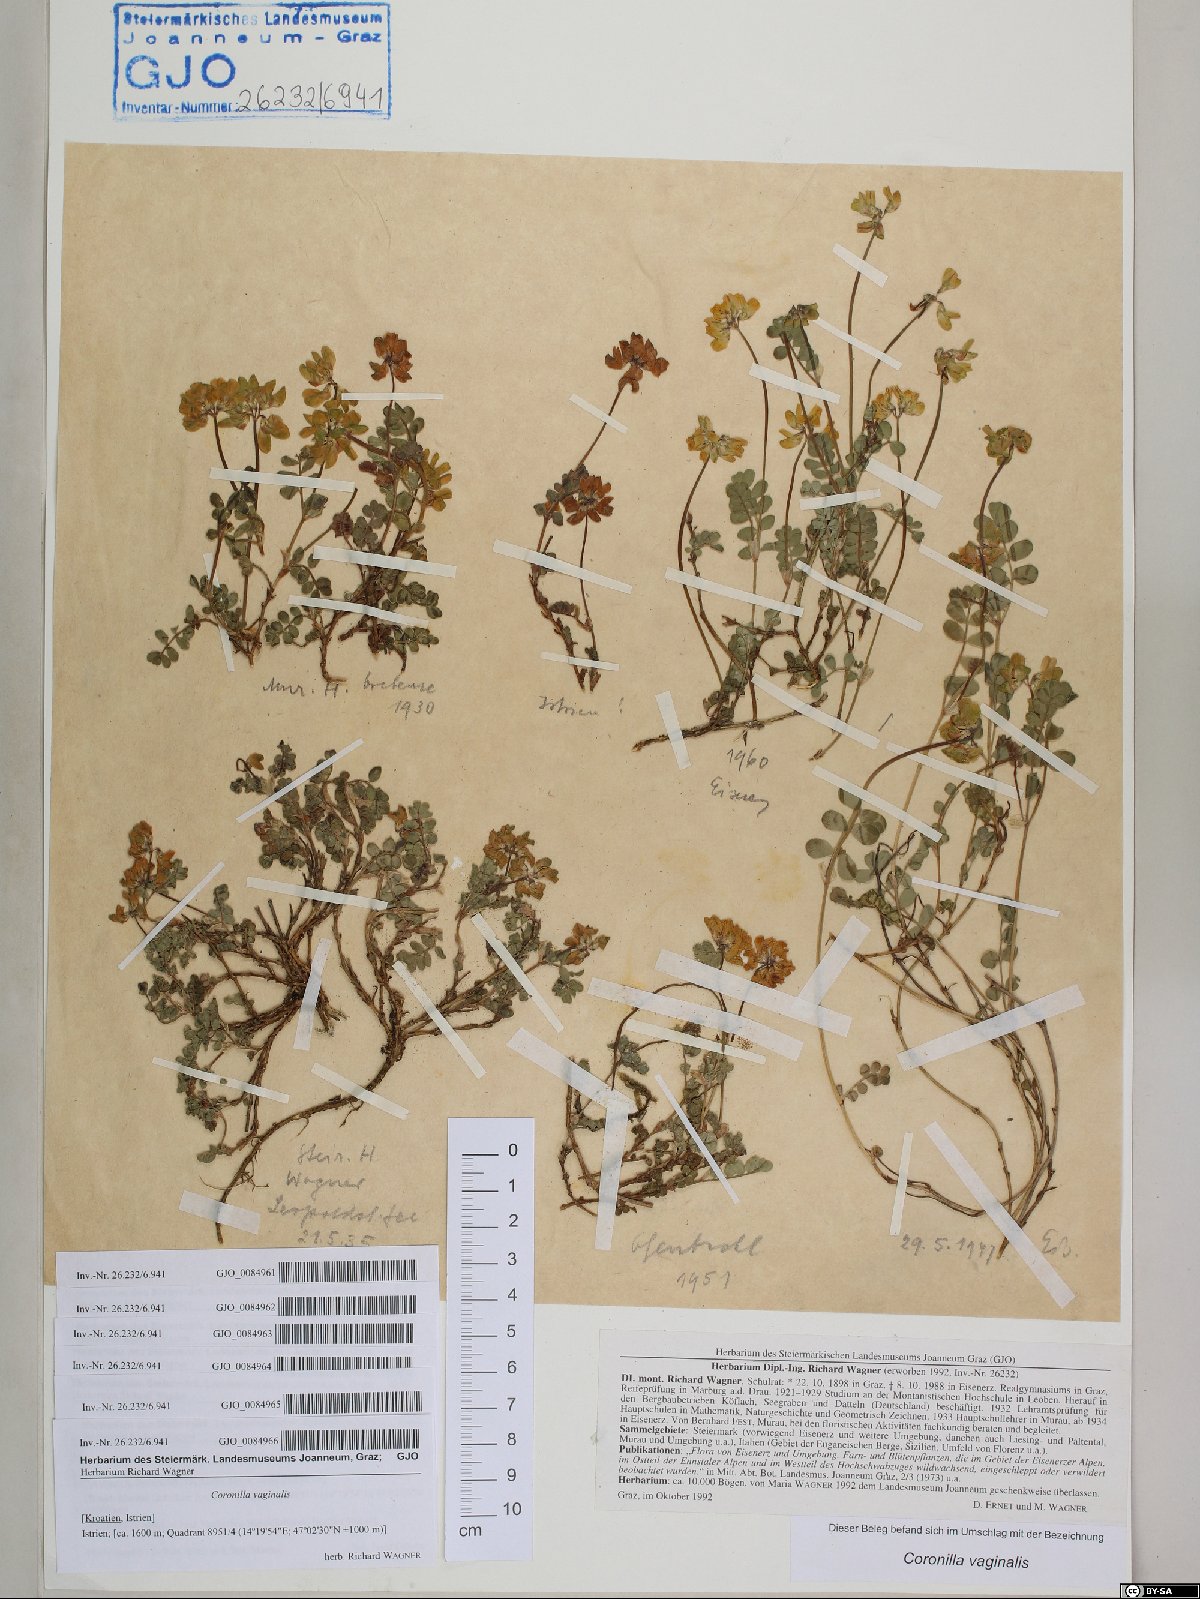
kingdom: Plantae
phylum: Tracheophyta
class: Magnoliopsida
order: Fabales
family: Fabaceae
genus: Coronilla
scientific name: Coronilla vaginalis
